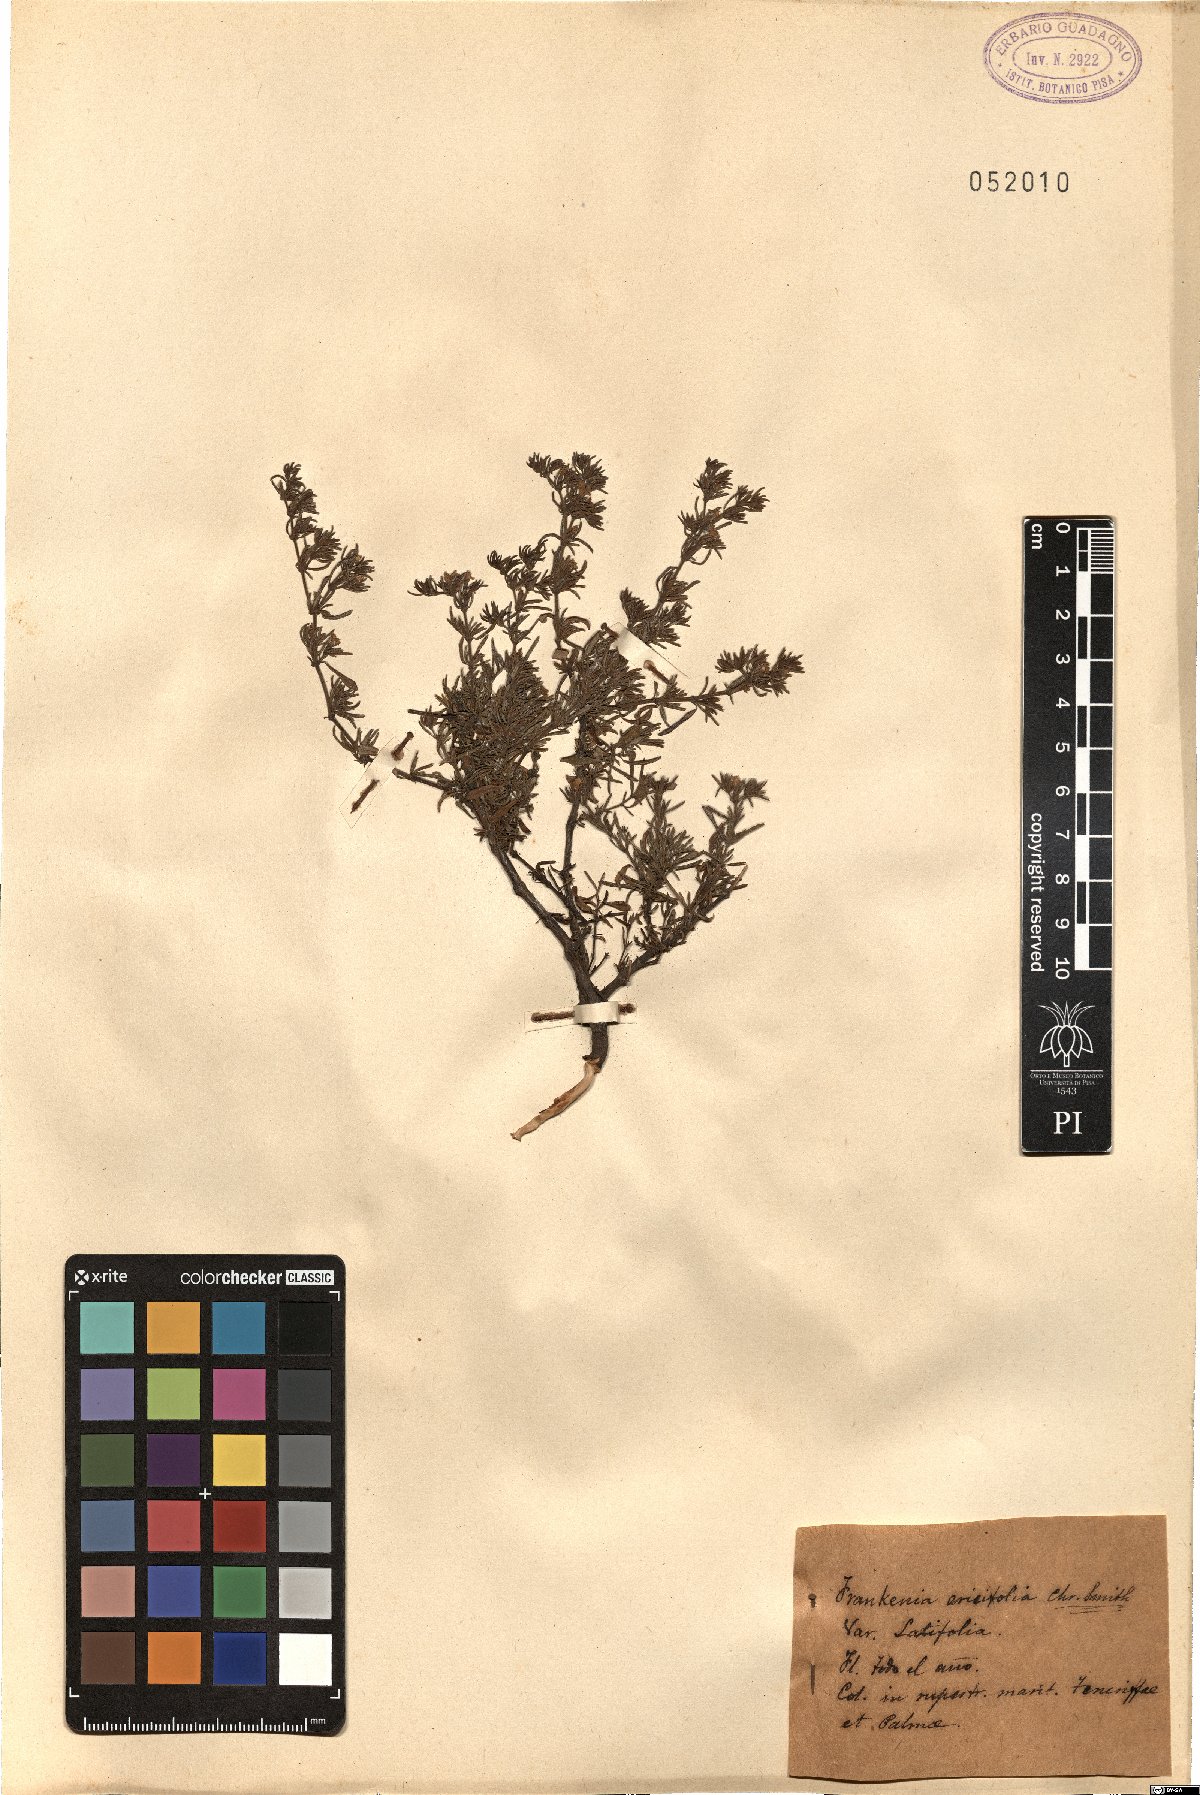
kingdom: Plantae
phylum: Tracheophyta
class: Magnoliopsida
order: Caryophyllales
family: Frankeniaceae
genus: Frankenia
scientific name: Frankenia ericifolia
